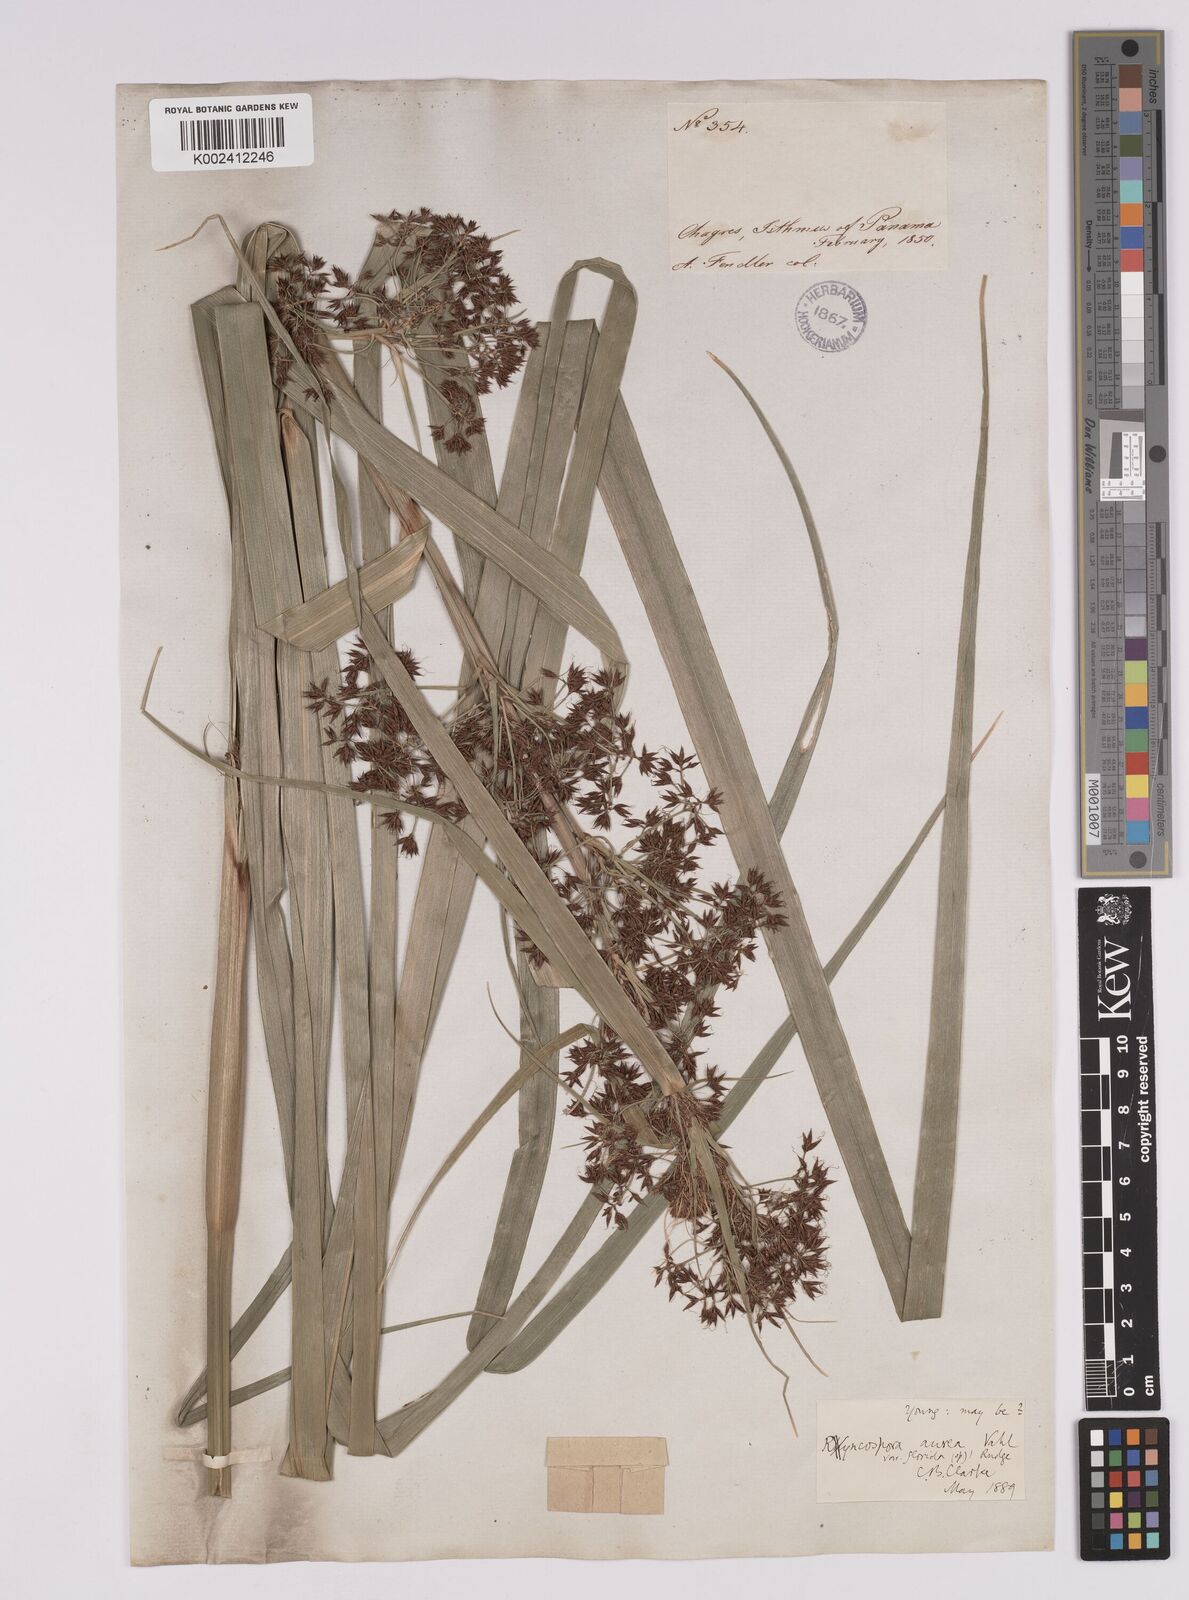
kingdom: Plantae
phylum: Tracheophyta
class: Liliopsida
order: Poales
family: Cyperaceae
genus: Rhynchospora
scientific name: Rhynchospora corymbosa
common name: Golden beak sedge
